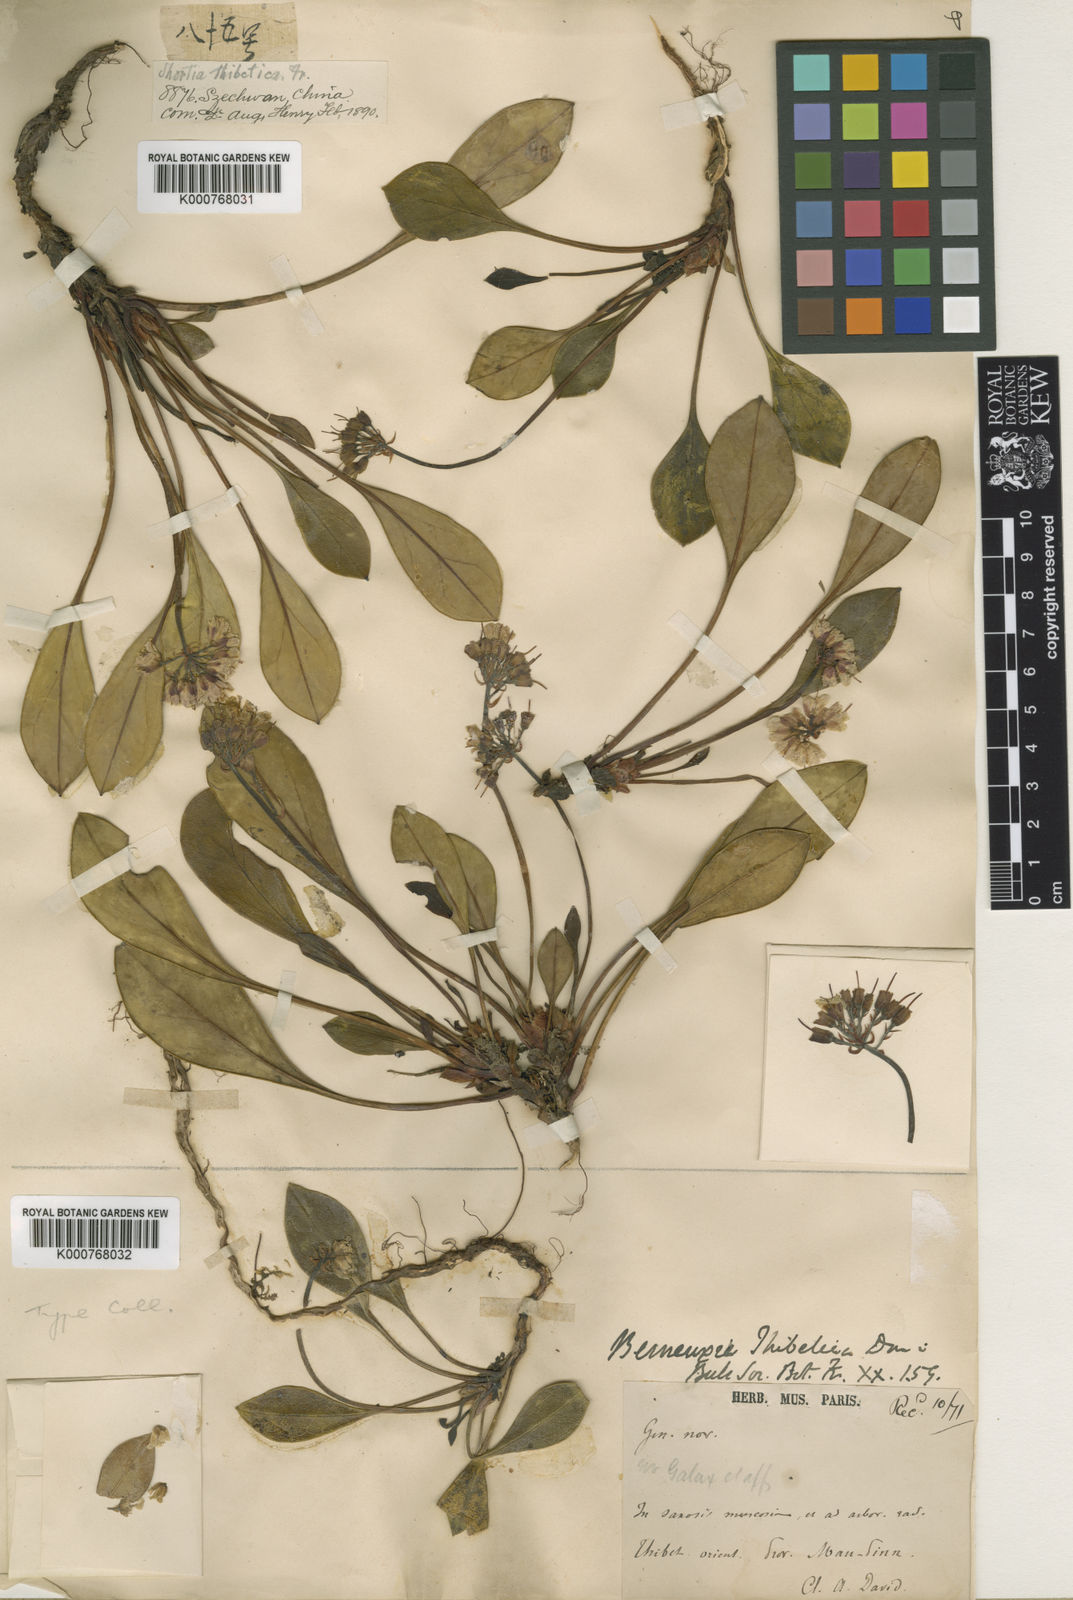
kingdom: Plantae
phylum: Tracheophyta
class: Magnoliopsida
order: Ericales
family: Diapensiaceae
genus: Berneuxia
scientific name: Berneuxia thibetica
